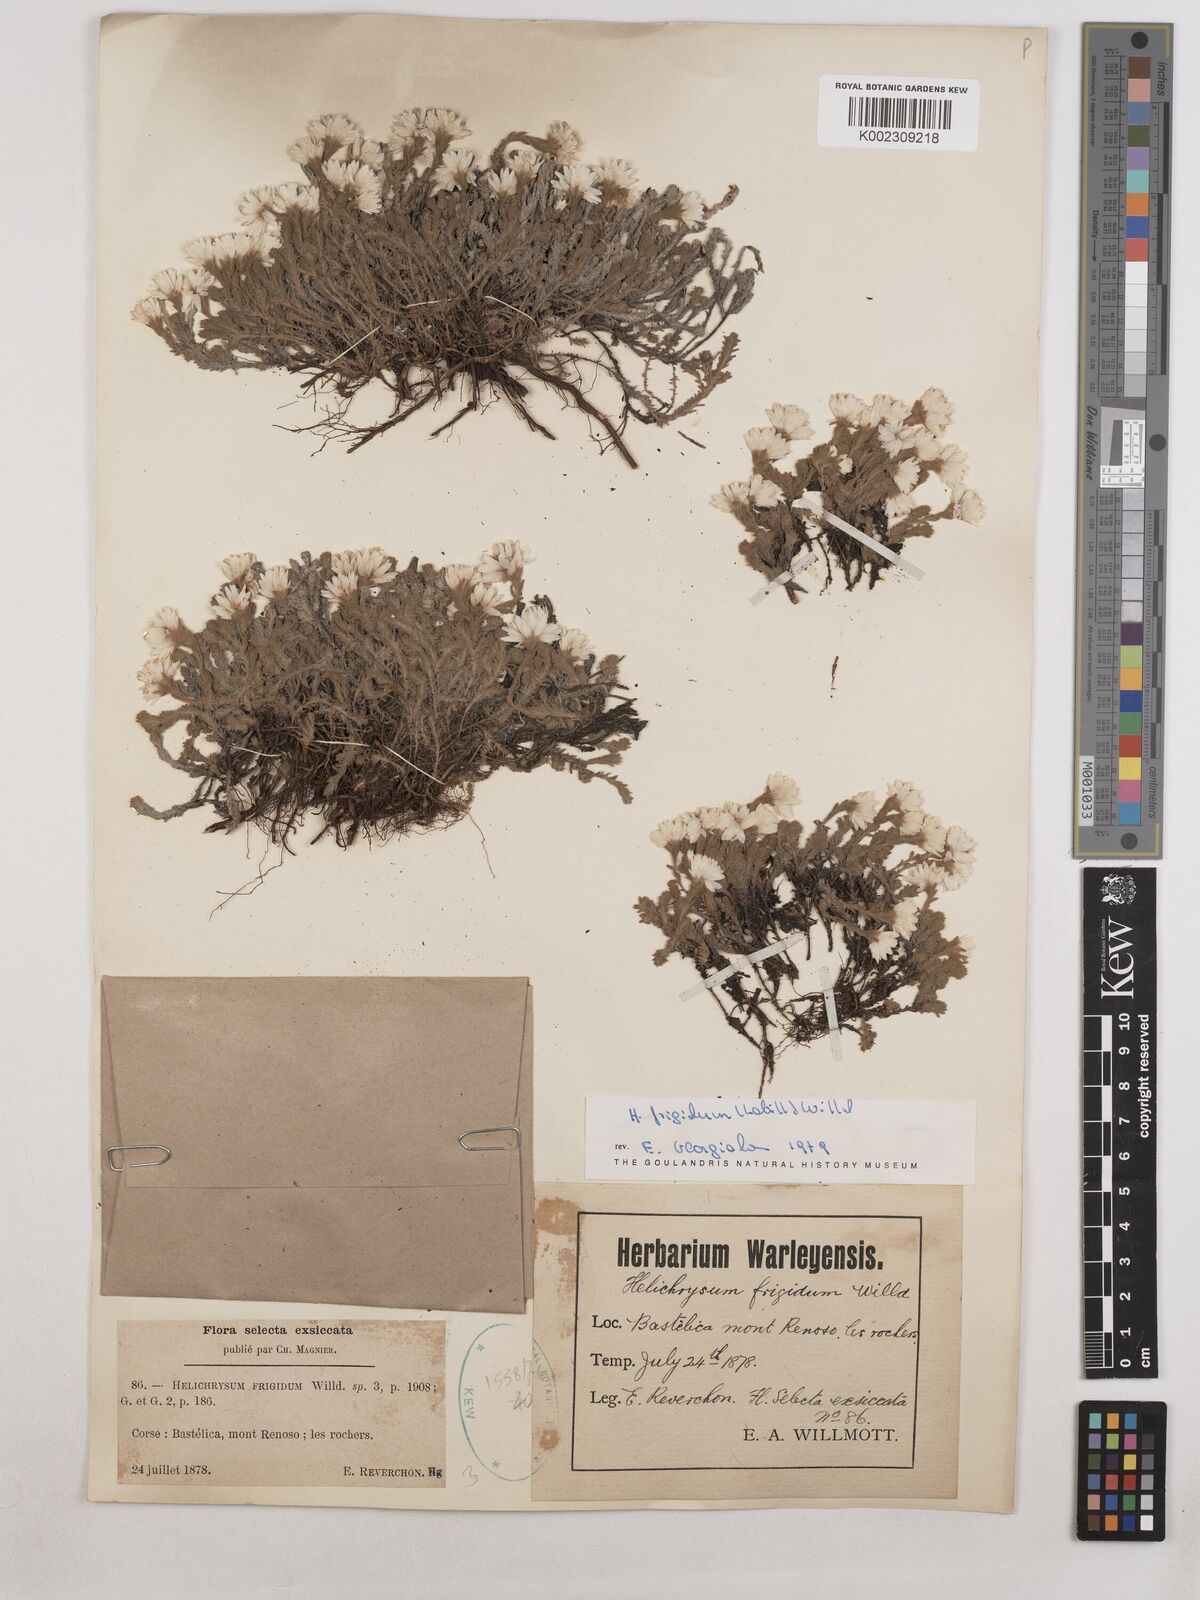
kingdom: Plantae
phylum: Tracheophyta
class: Magnoliopsida
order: Asterales
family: Asteraceae
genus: Castroviejoa
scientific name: Castroviejoa frigida
